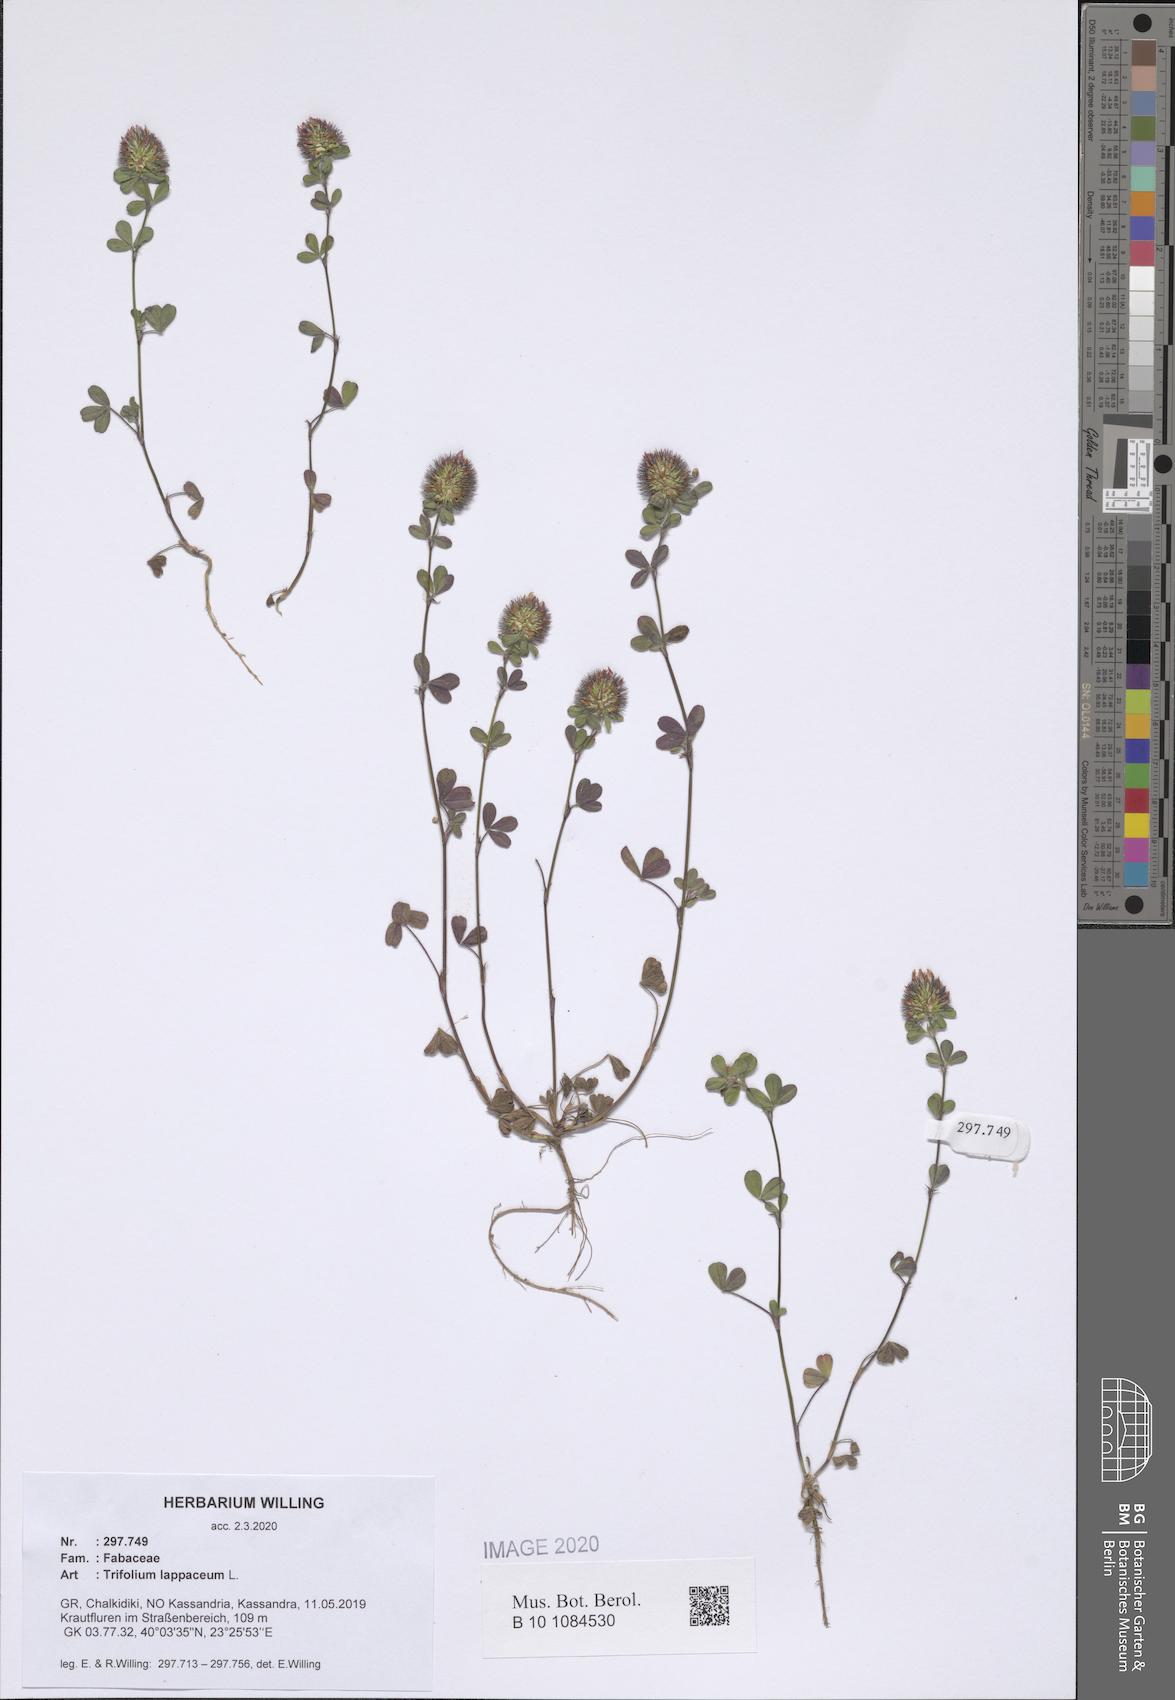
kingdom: Plantae
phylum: Tracheophyta
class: Magnoliopsida
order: Fabales
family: Fabaceae
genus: Trifolium
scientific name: Trifolium lappaceum
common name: Bur clover
